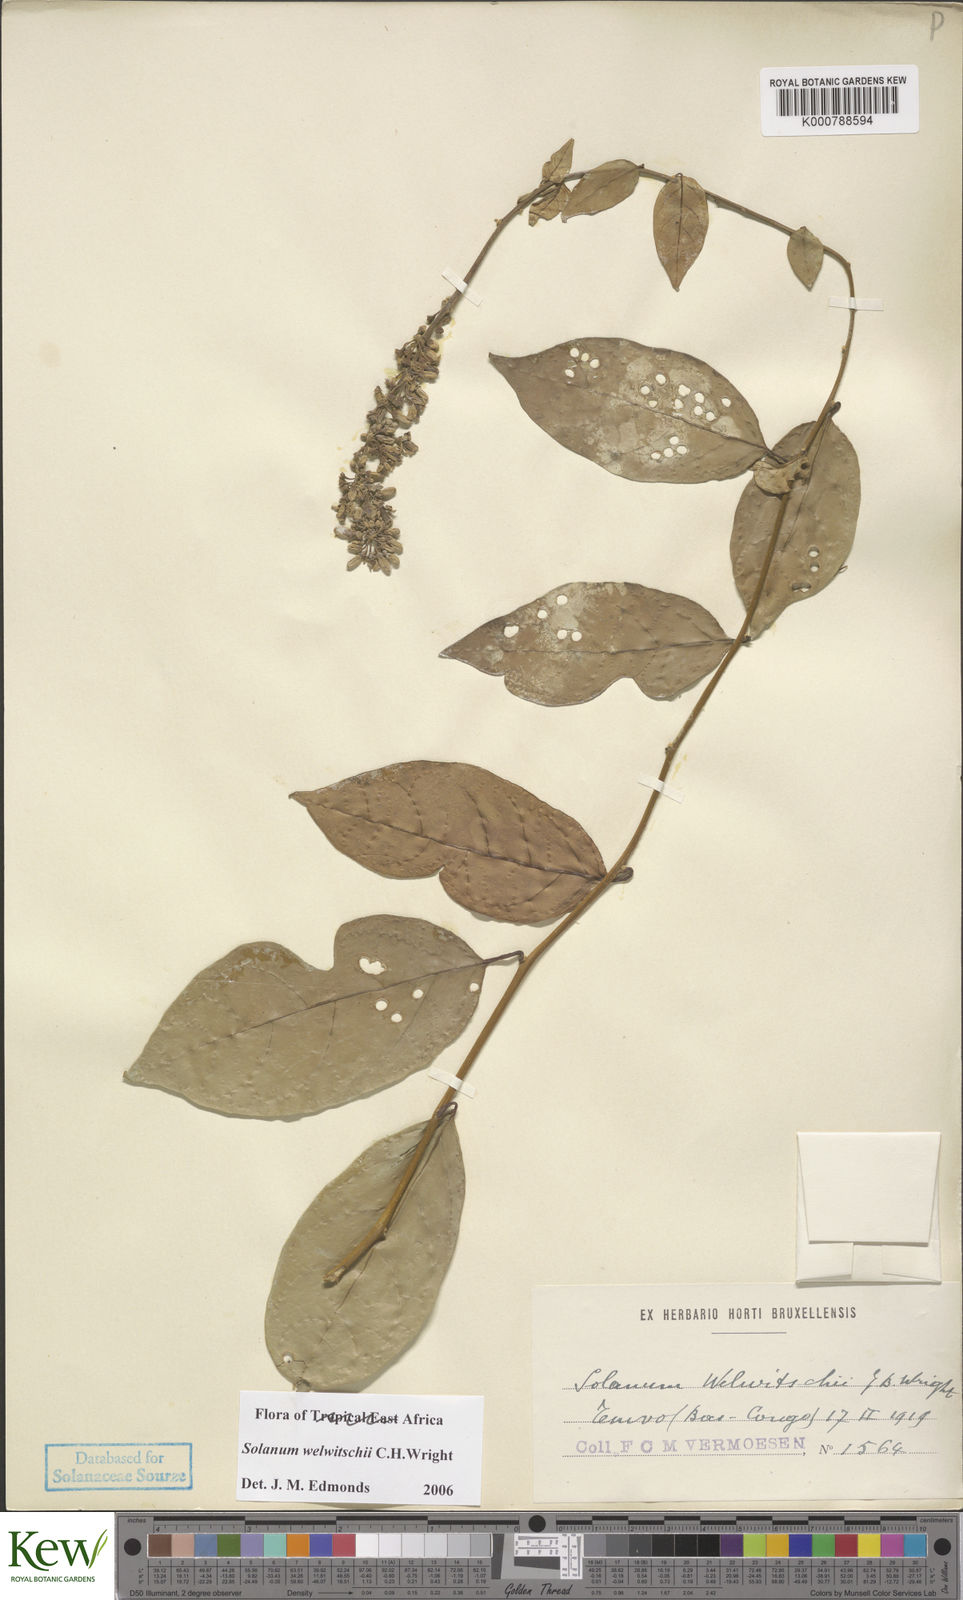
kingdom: Plantae
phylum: Tracheophyta
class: Magnoliopsida
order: Solanales
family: Solanaceae
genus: Solanum
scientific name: Solanum terminale
